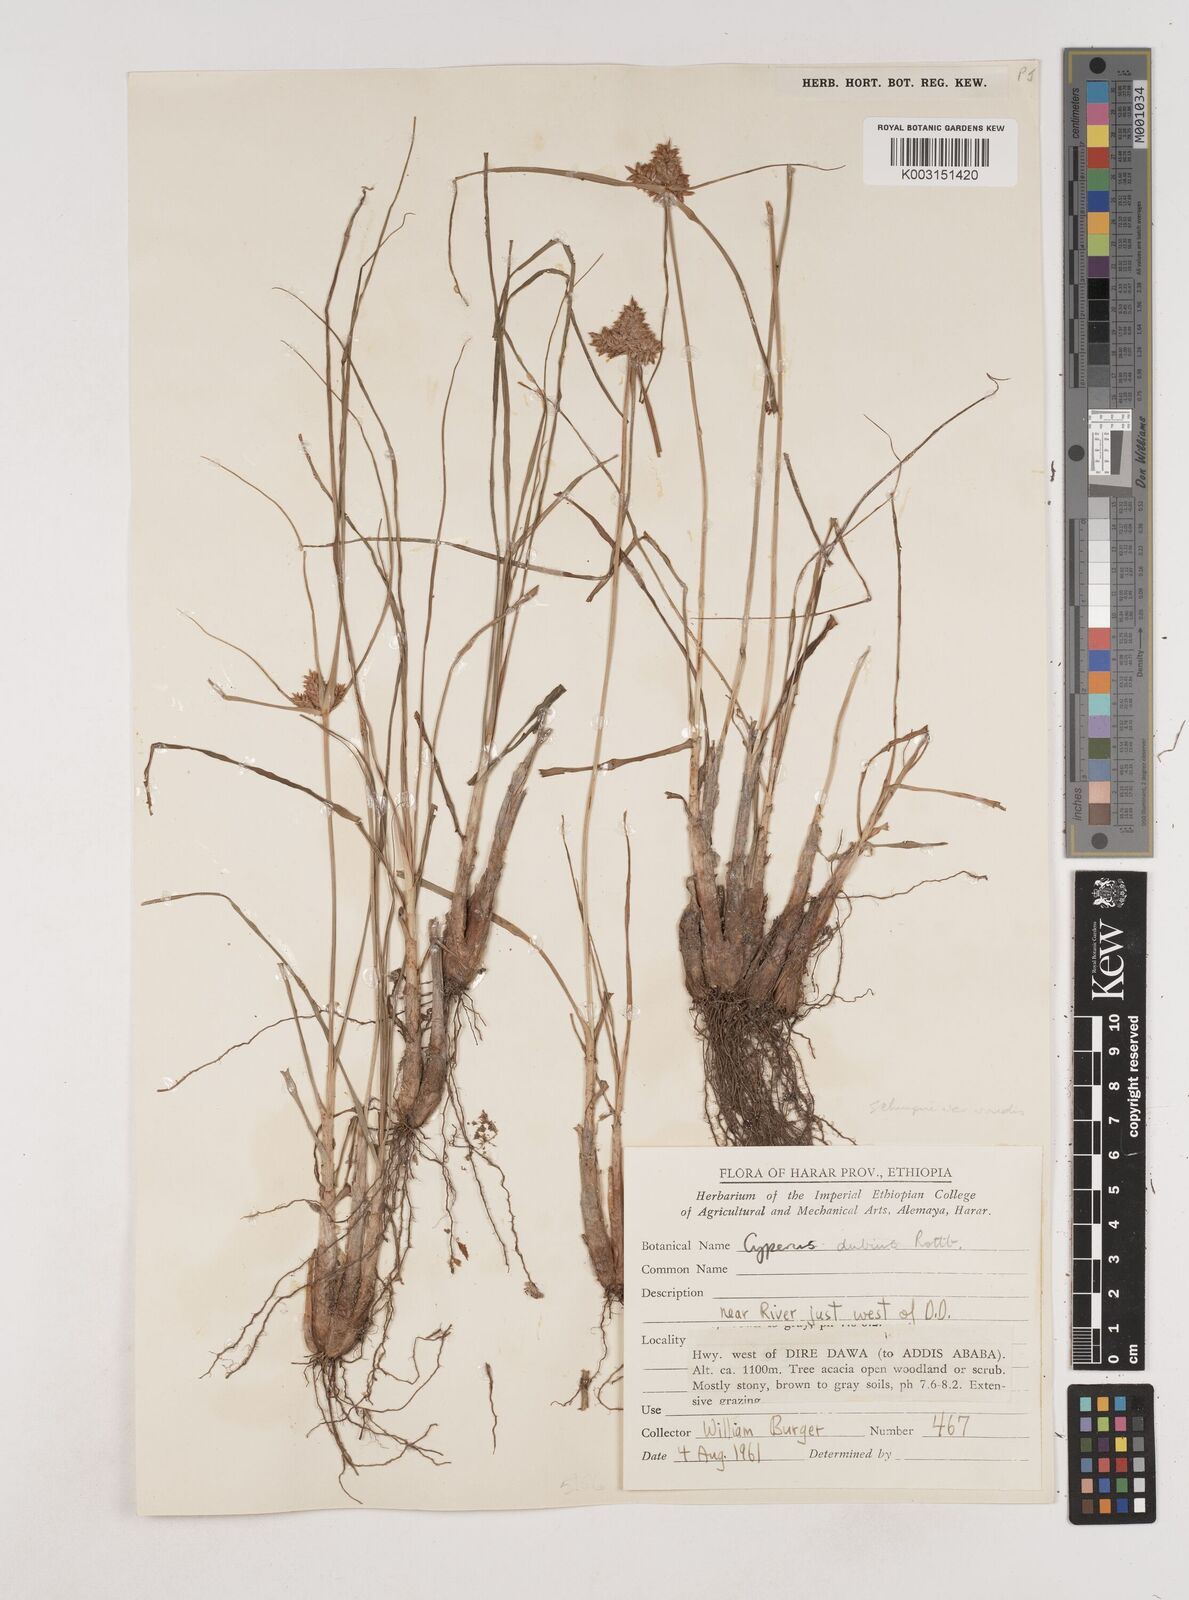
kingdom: Plantae
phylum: Tracheophyta
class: Liliopsida
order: Poales
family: Cyperaceae
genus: Cyperus
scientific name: Cyperus cruentus
